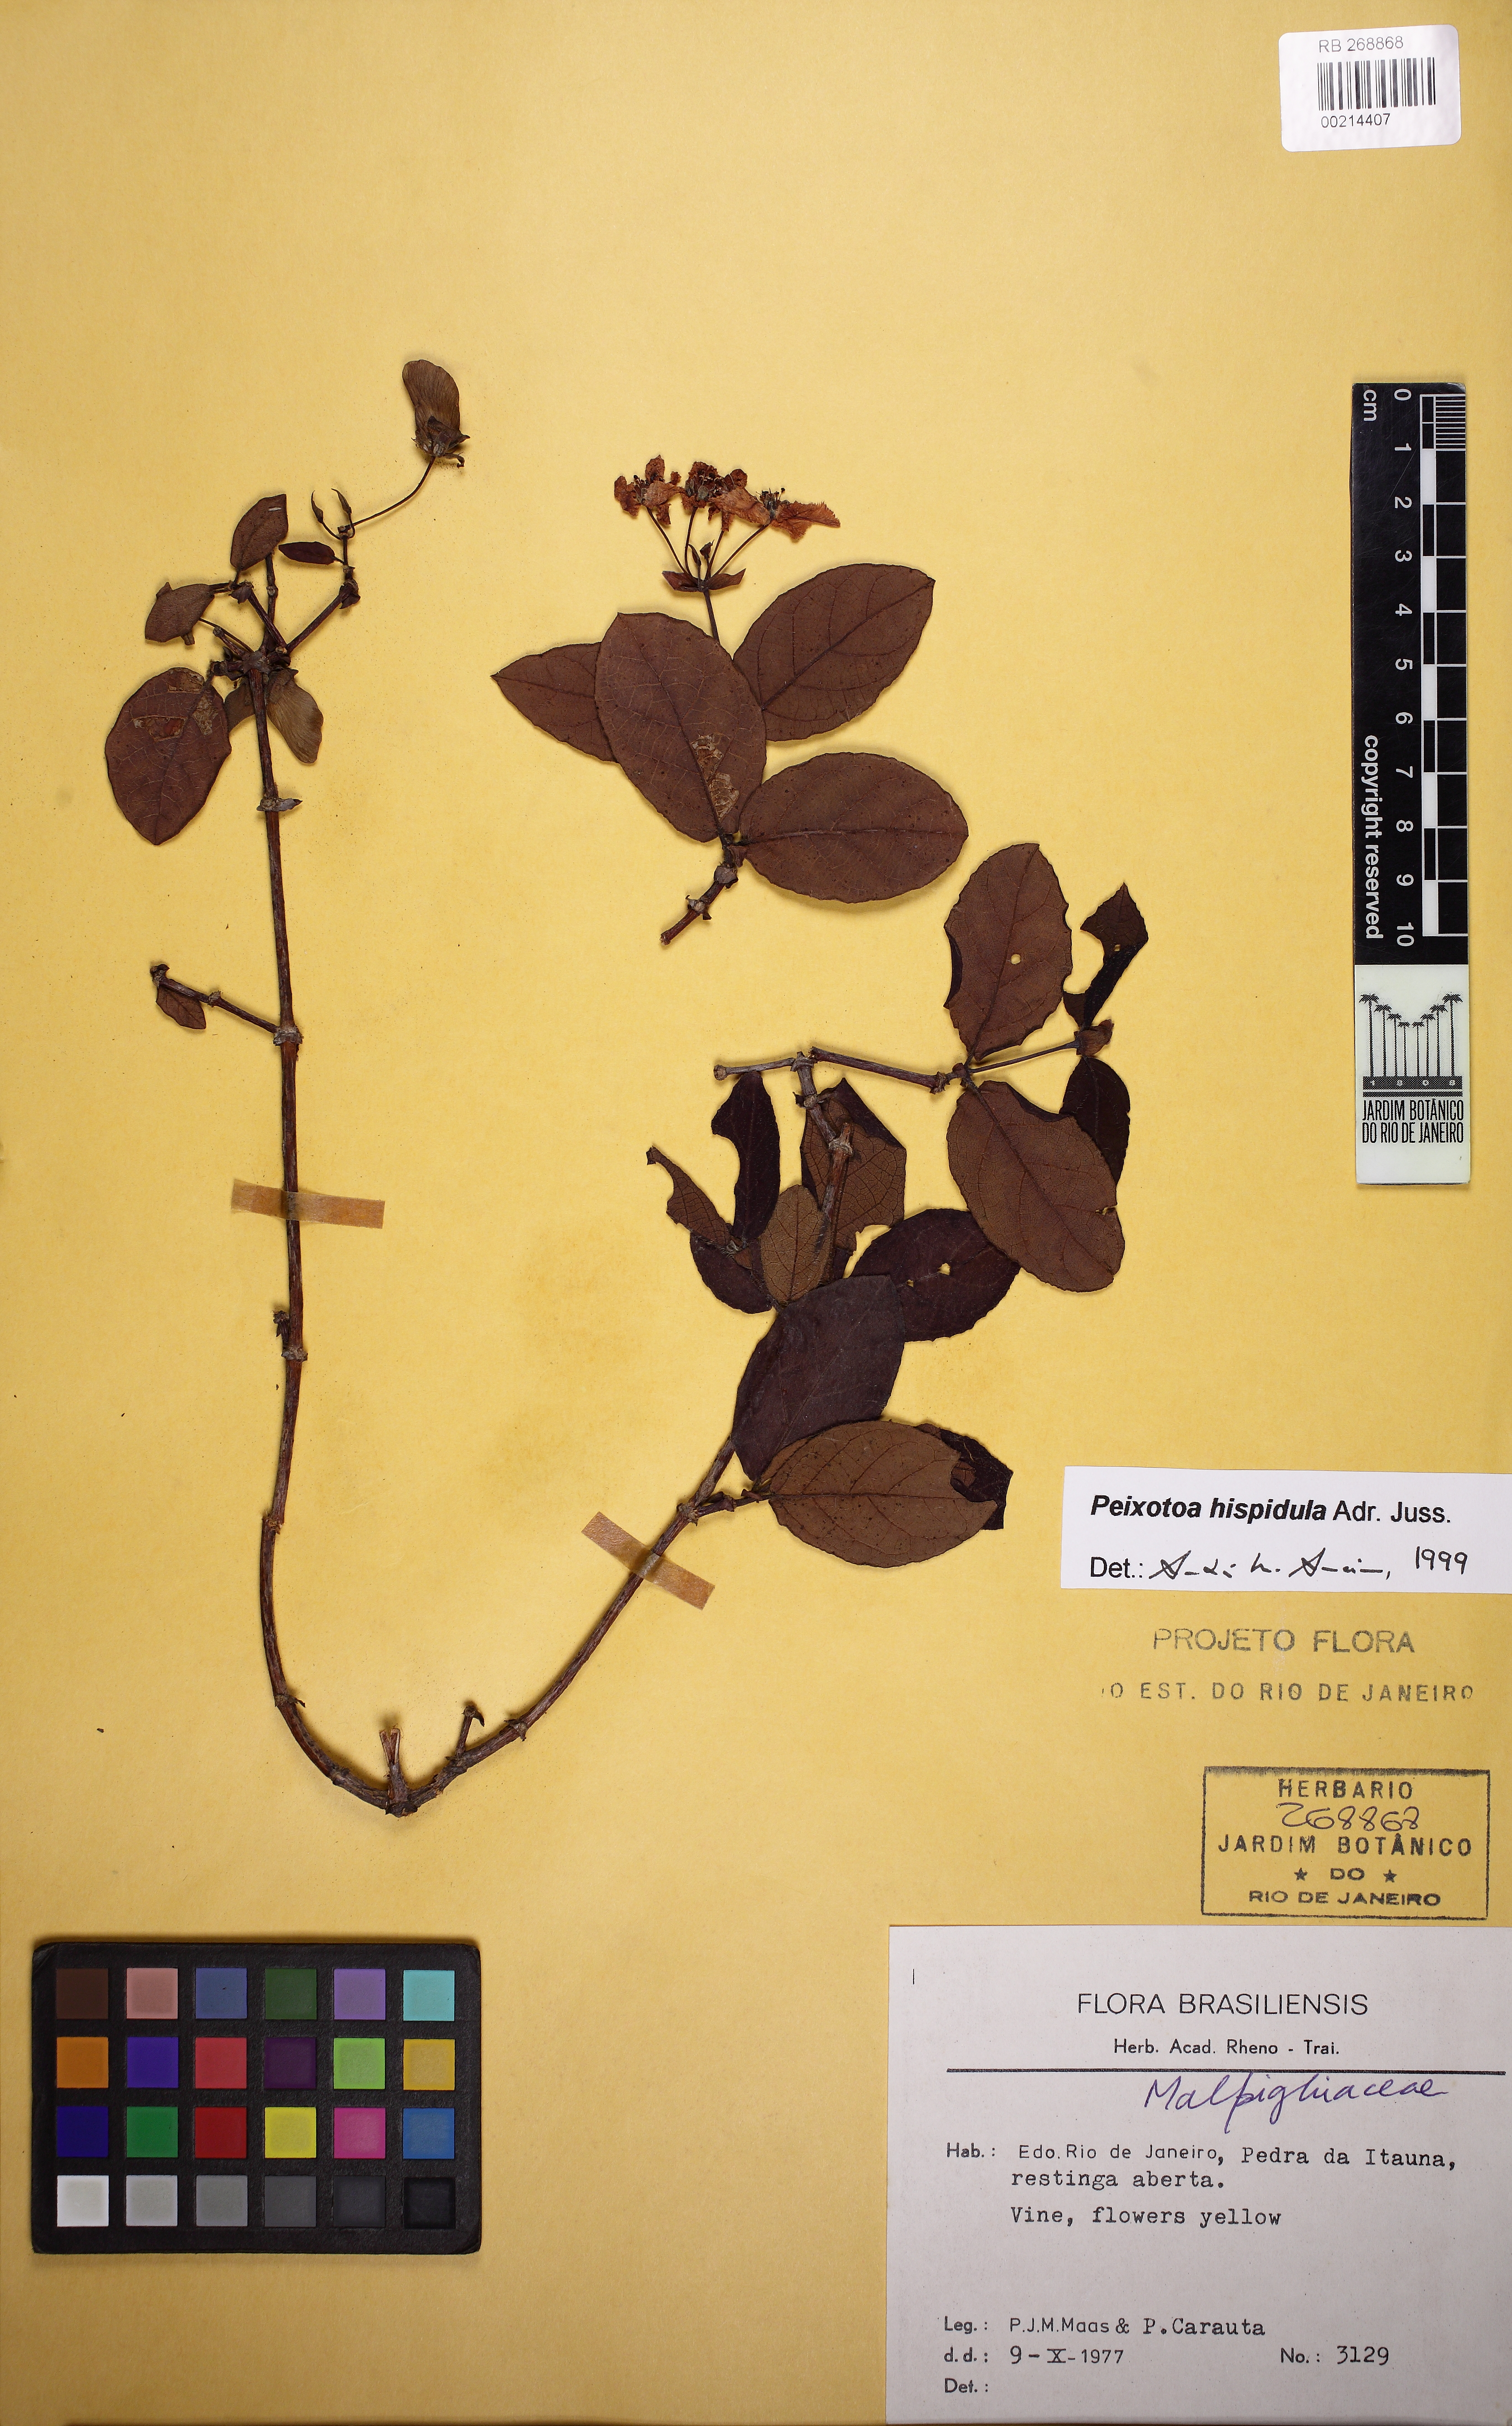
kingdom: Plantae
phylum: Tracheophyta
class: Magnoliopsida
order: Malpighiales
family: Malpighiaceae
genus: Peixotoa
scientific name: Peixotoa hispidula
